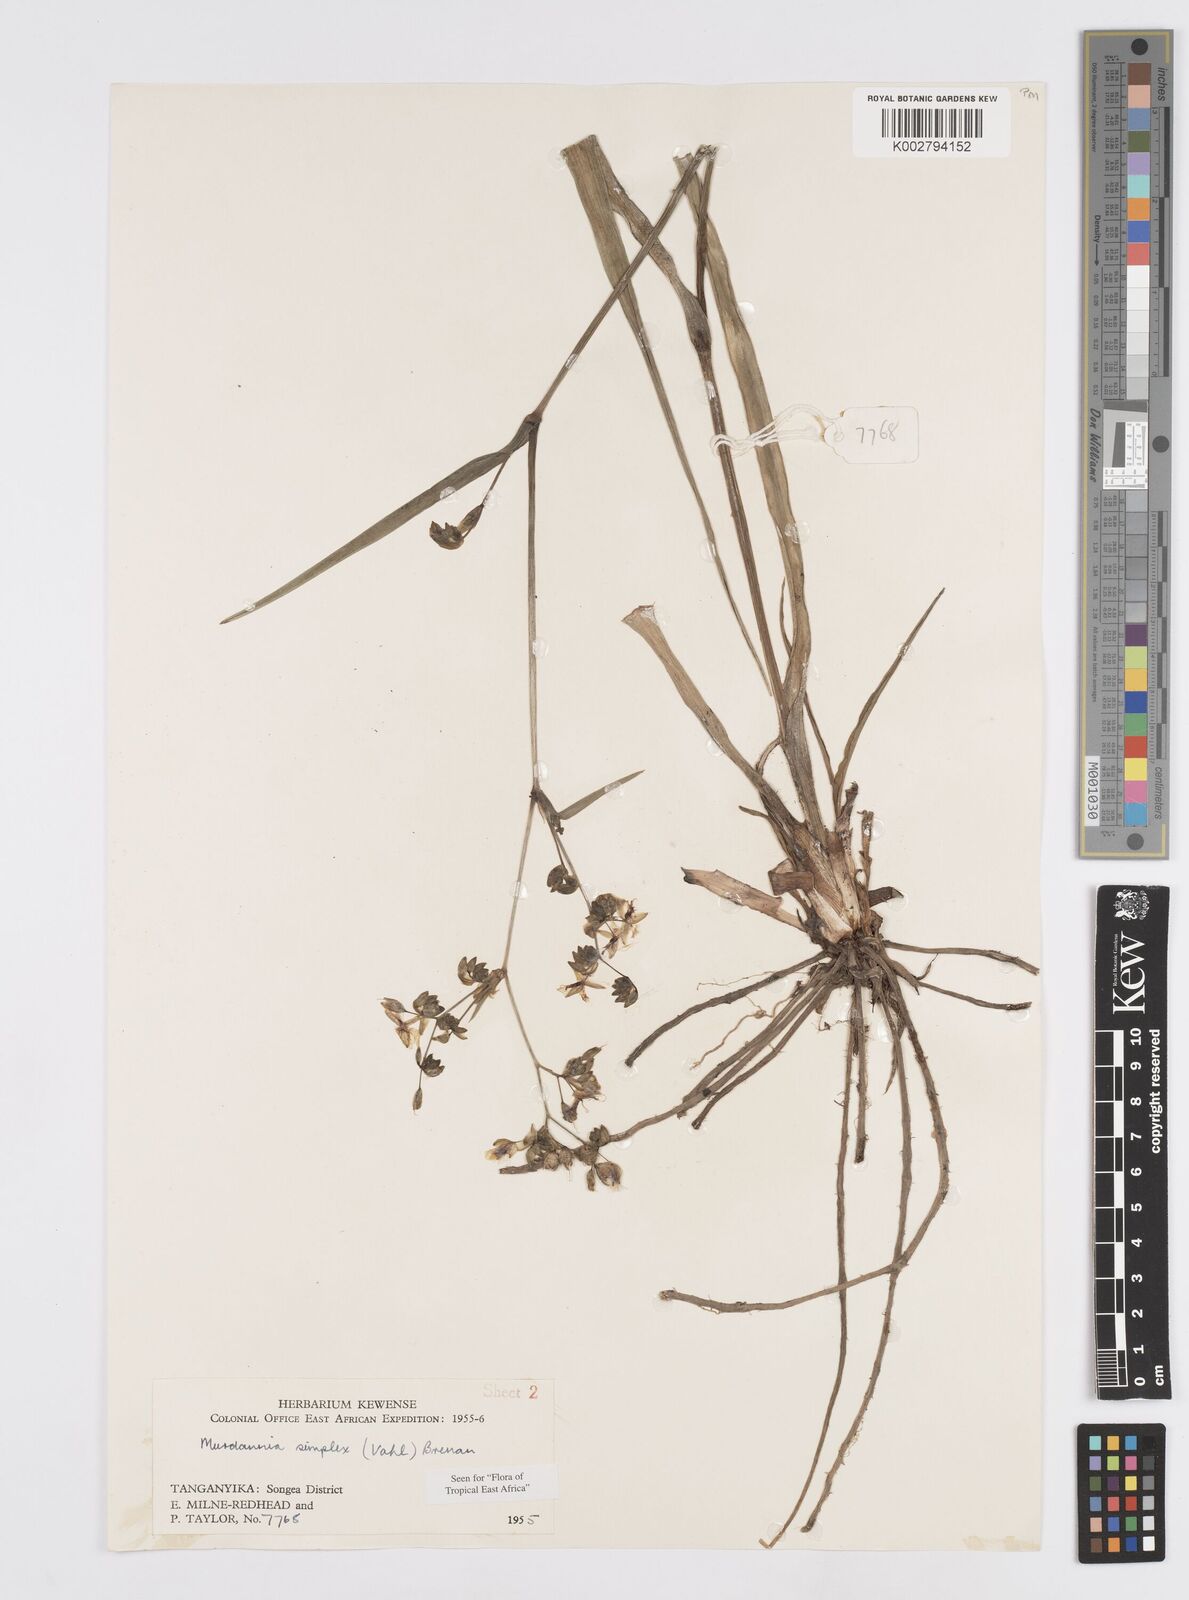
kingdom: Plantae
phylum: Tracheophyta
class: Liliopsida
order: Commelinales
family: Commelinaceae
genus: Murdannia
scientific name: Murdannia simplex
